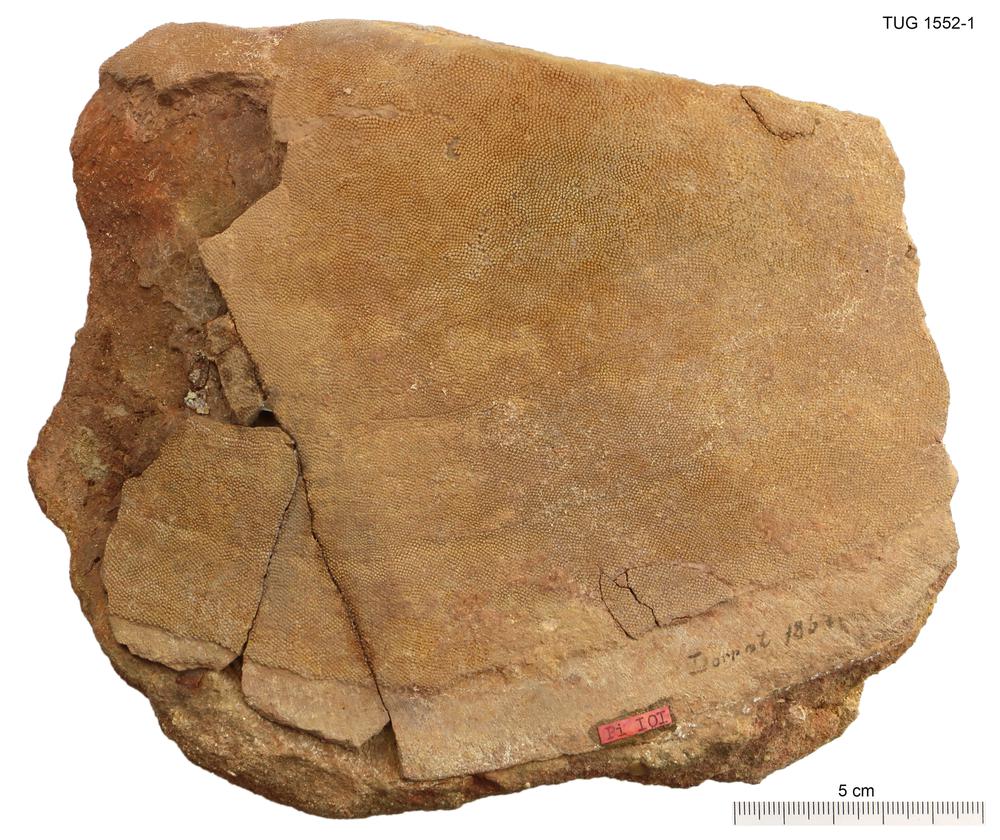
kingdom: Animalia
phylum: Chordata
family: Psammosteidae
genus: Pycnosteus
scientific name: Pycnosteus
